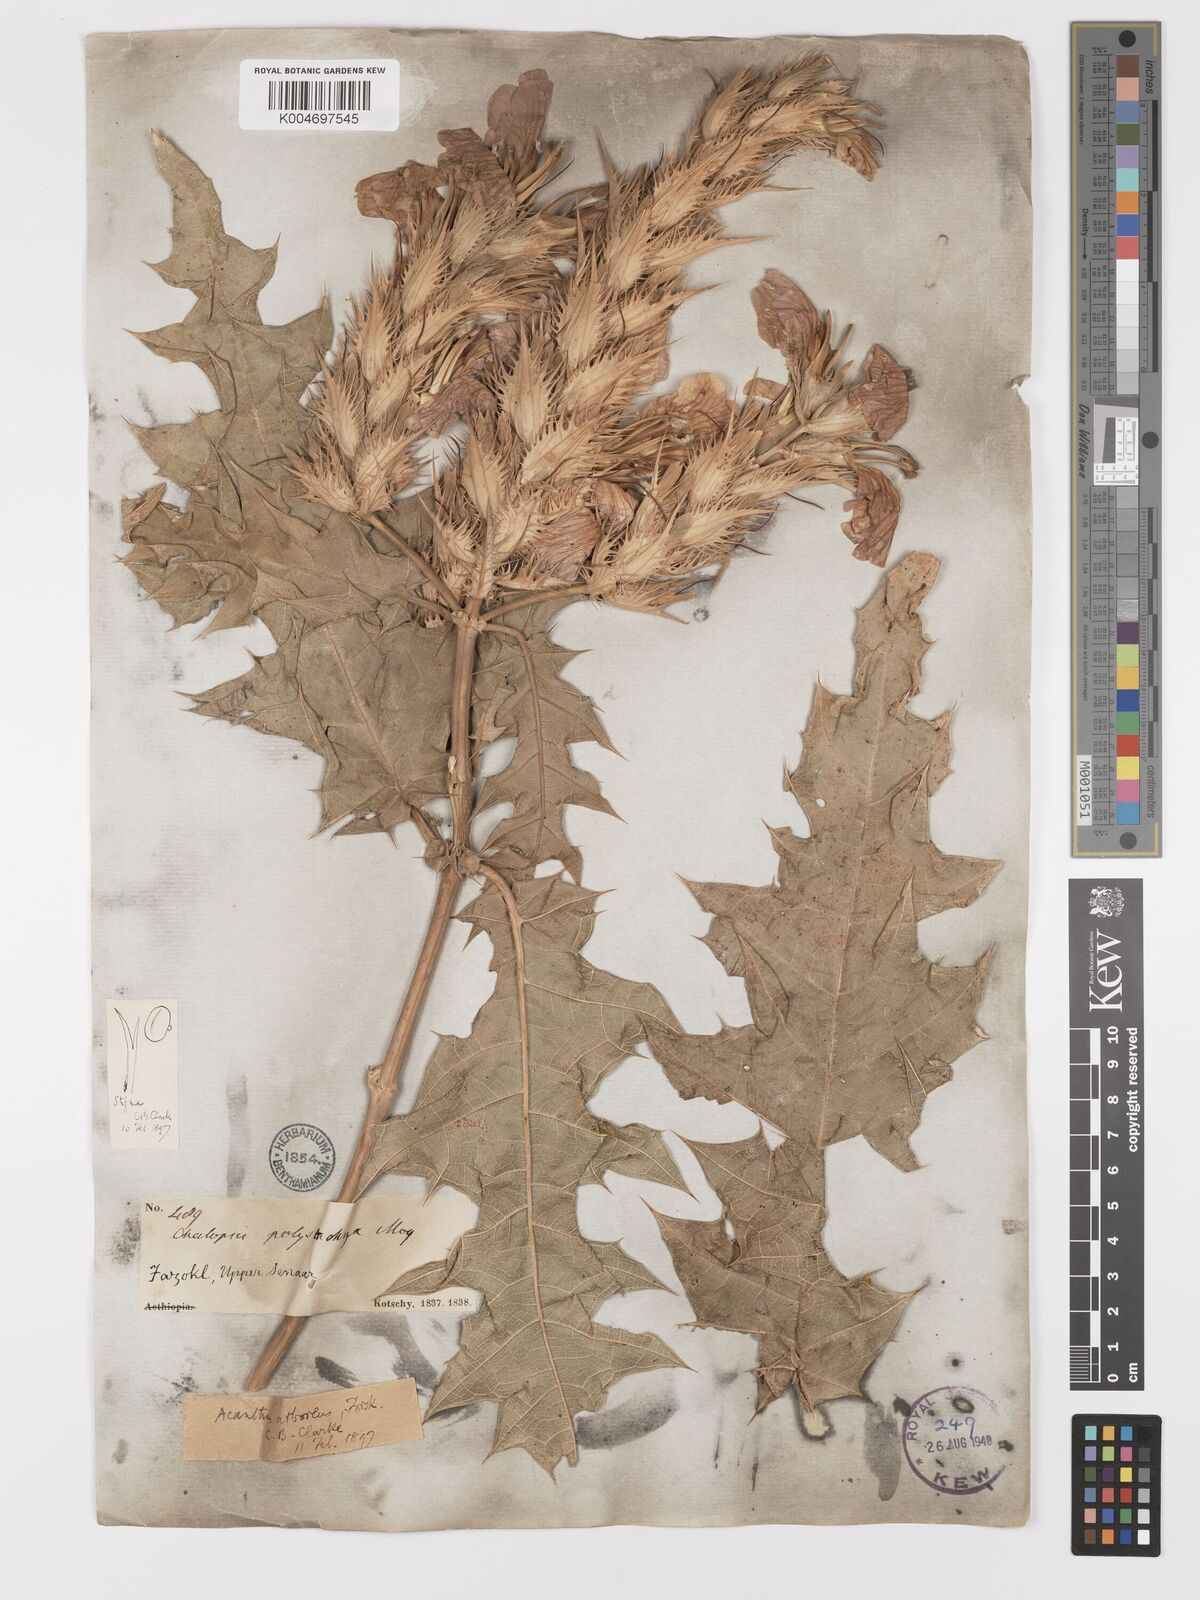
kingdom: Plantae
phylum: Tracheophyta
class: Magnoliopsida
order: Lamiales
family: Acanthaceae
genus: Acanthus
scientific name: Acanthus polystachyus
